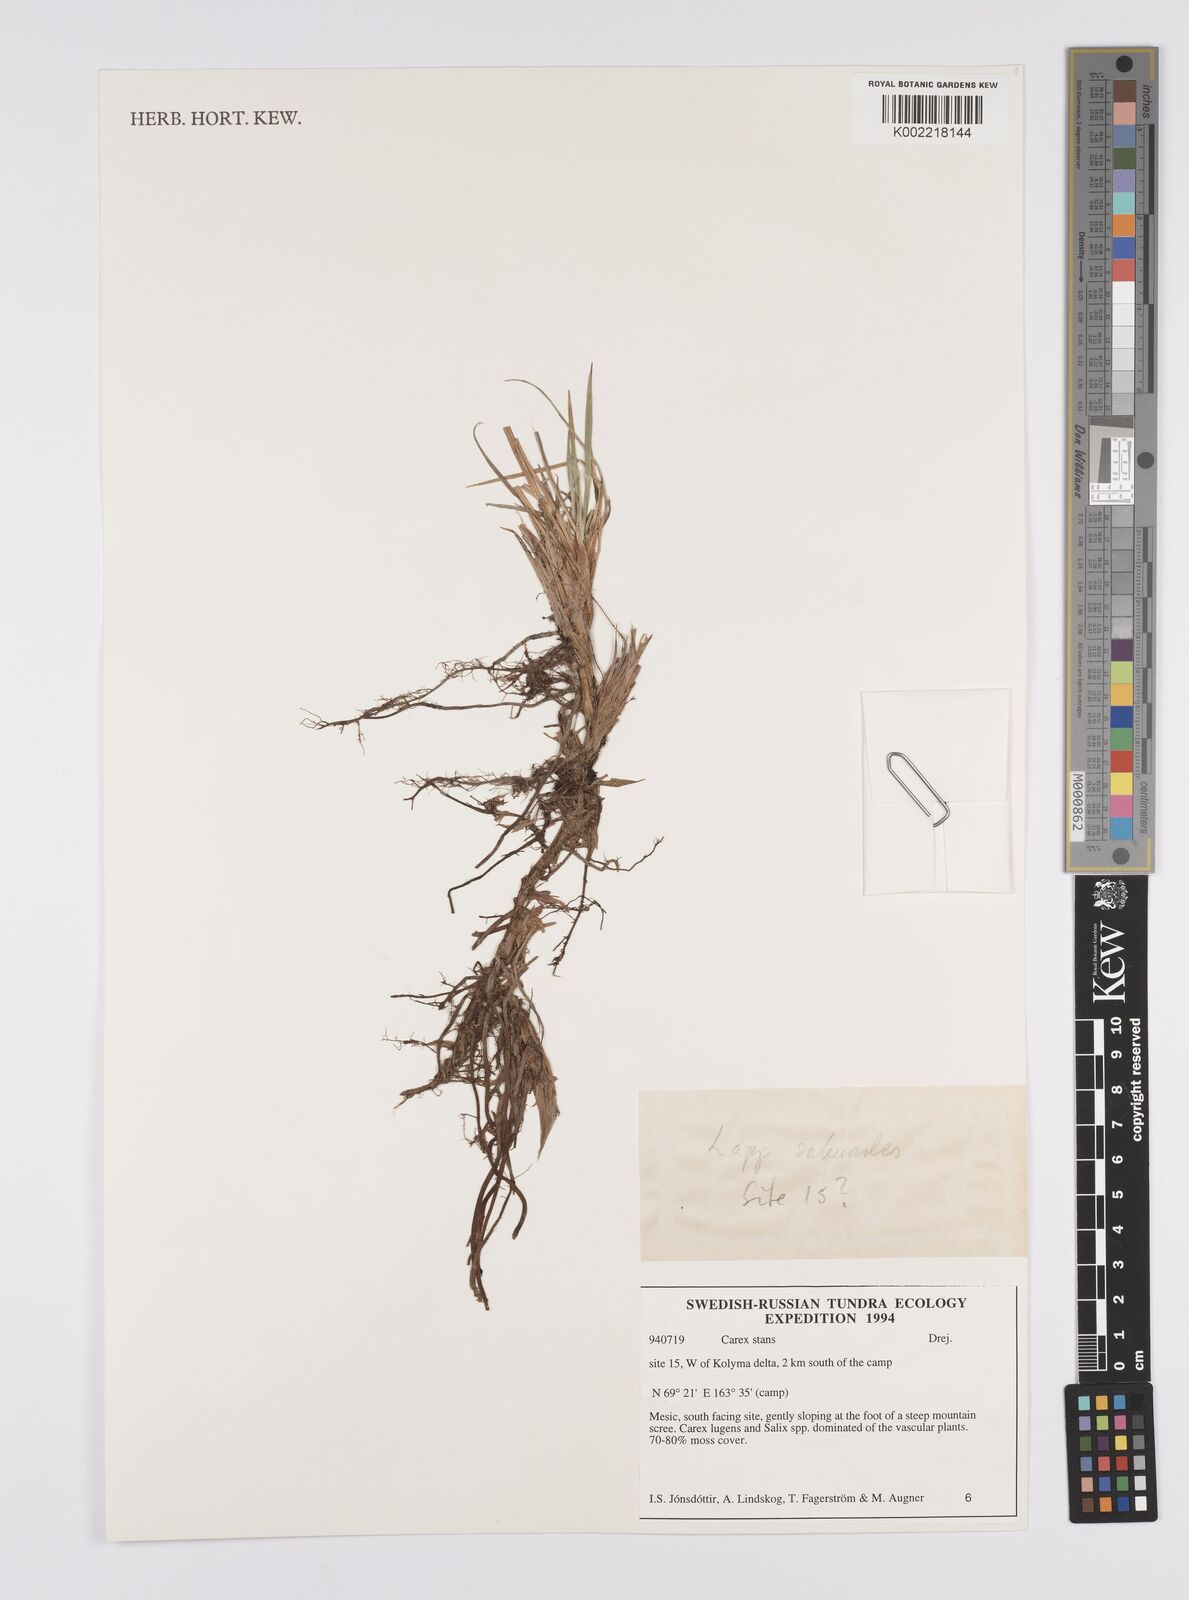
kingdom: Plantae
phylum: Tracheophyta
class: Liliopsida
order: Poales
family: Cyperaceae
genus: Carex
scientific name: Carex aquatilis
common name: Water sedge
